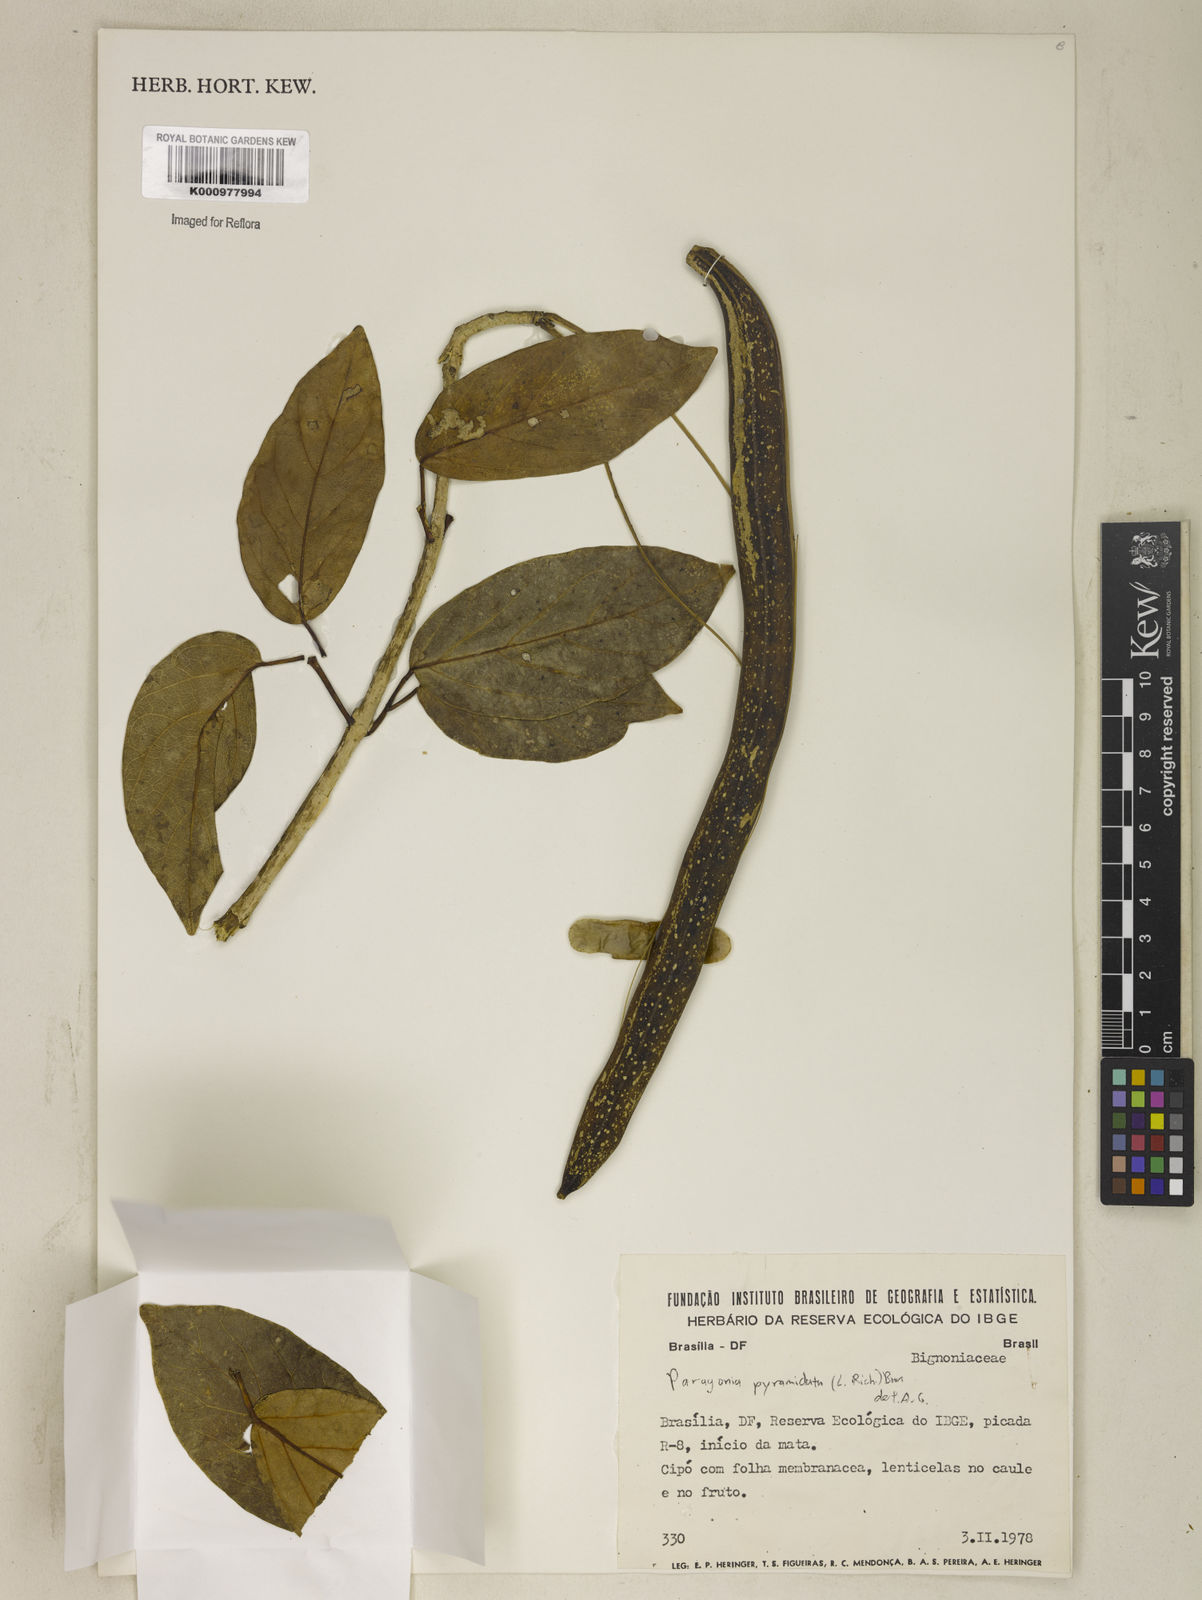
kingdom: Plantae
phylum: Tracheophyta
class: Magnoliopsida
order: Lamiales
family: Bignoniaceae
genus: Tanaecium
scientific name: Tanaecium pyramidatum
